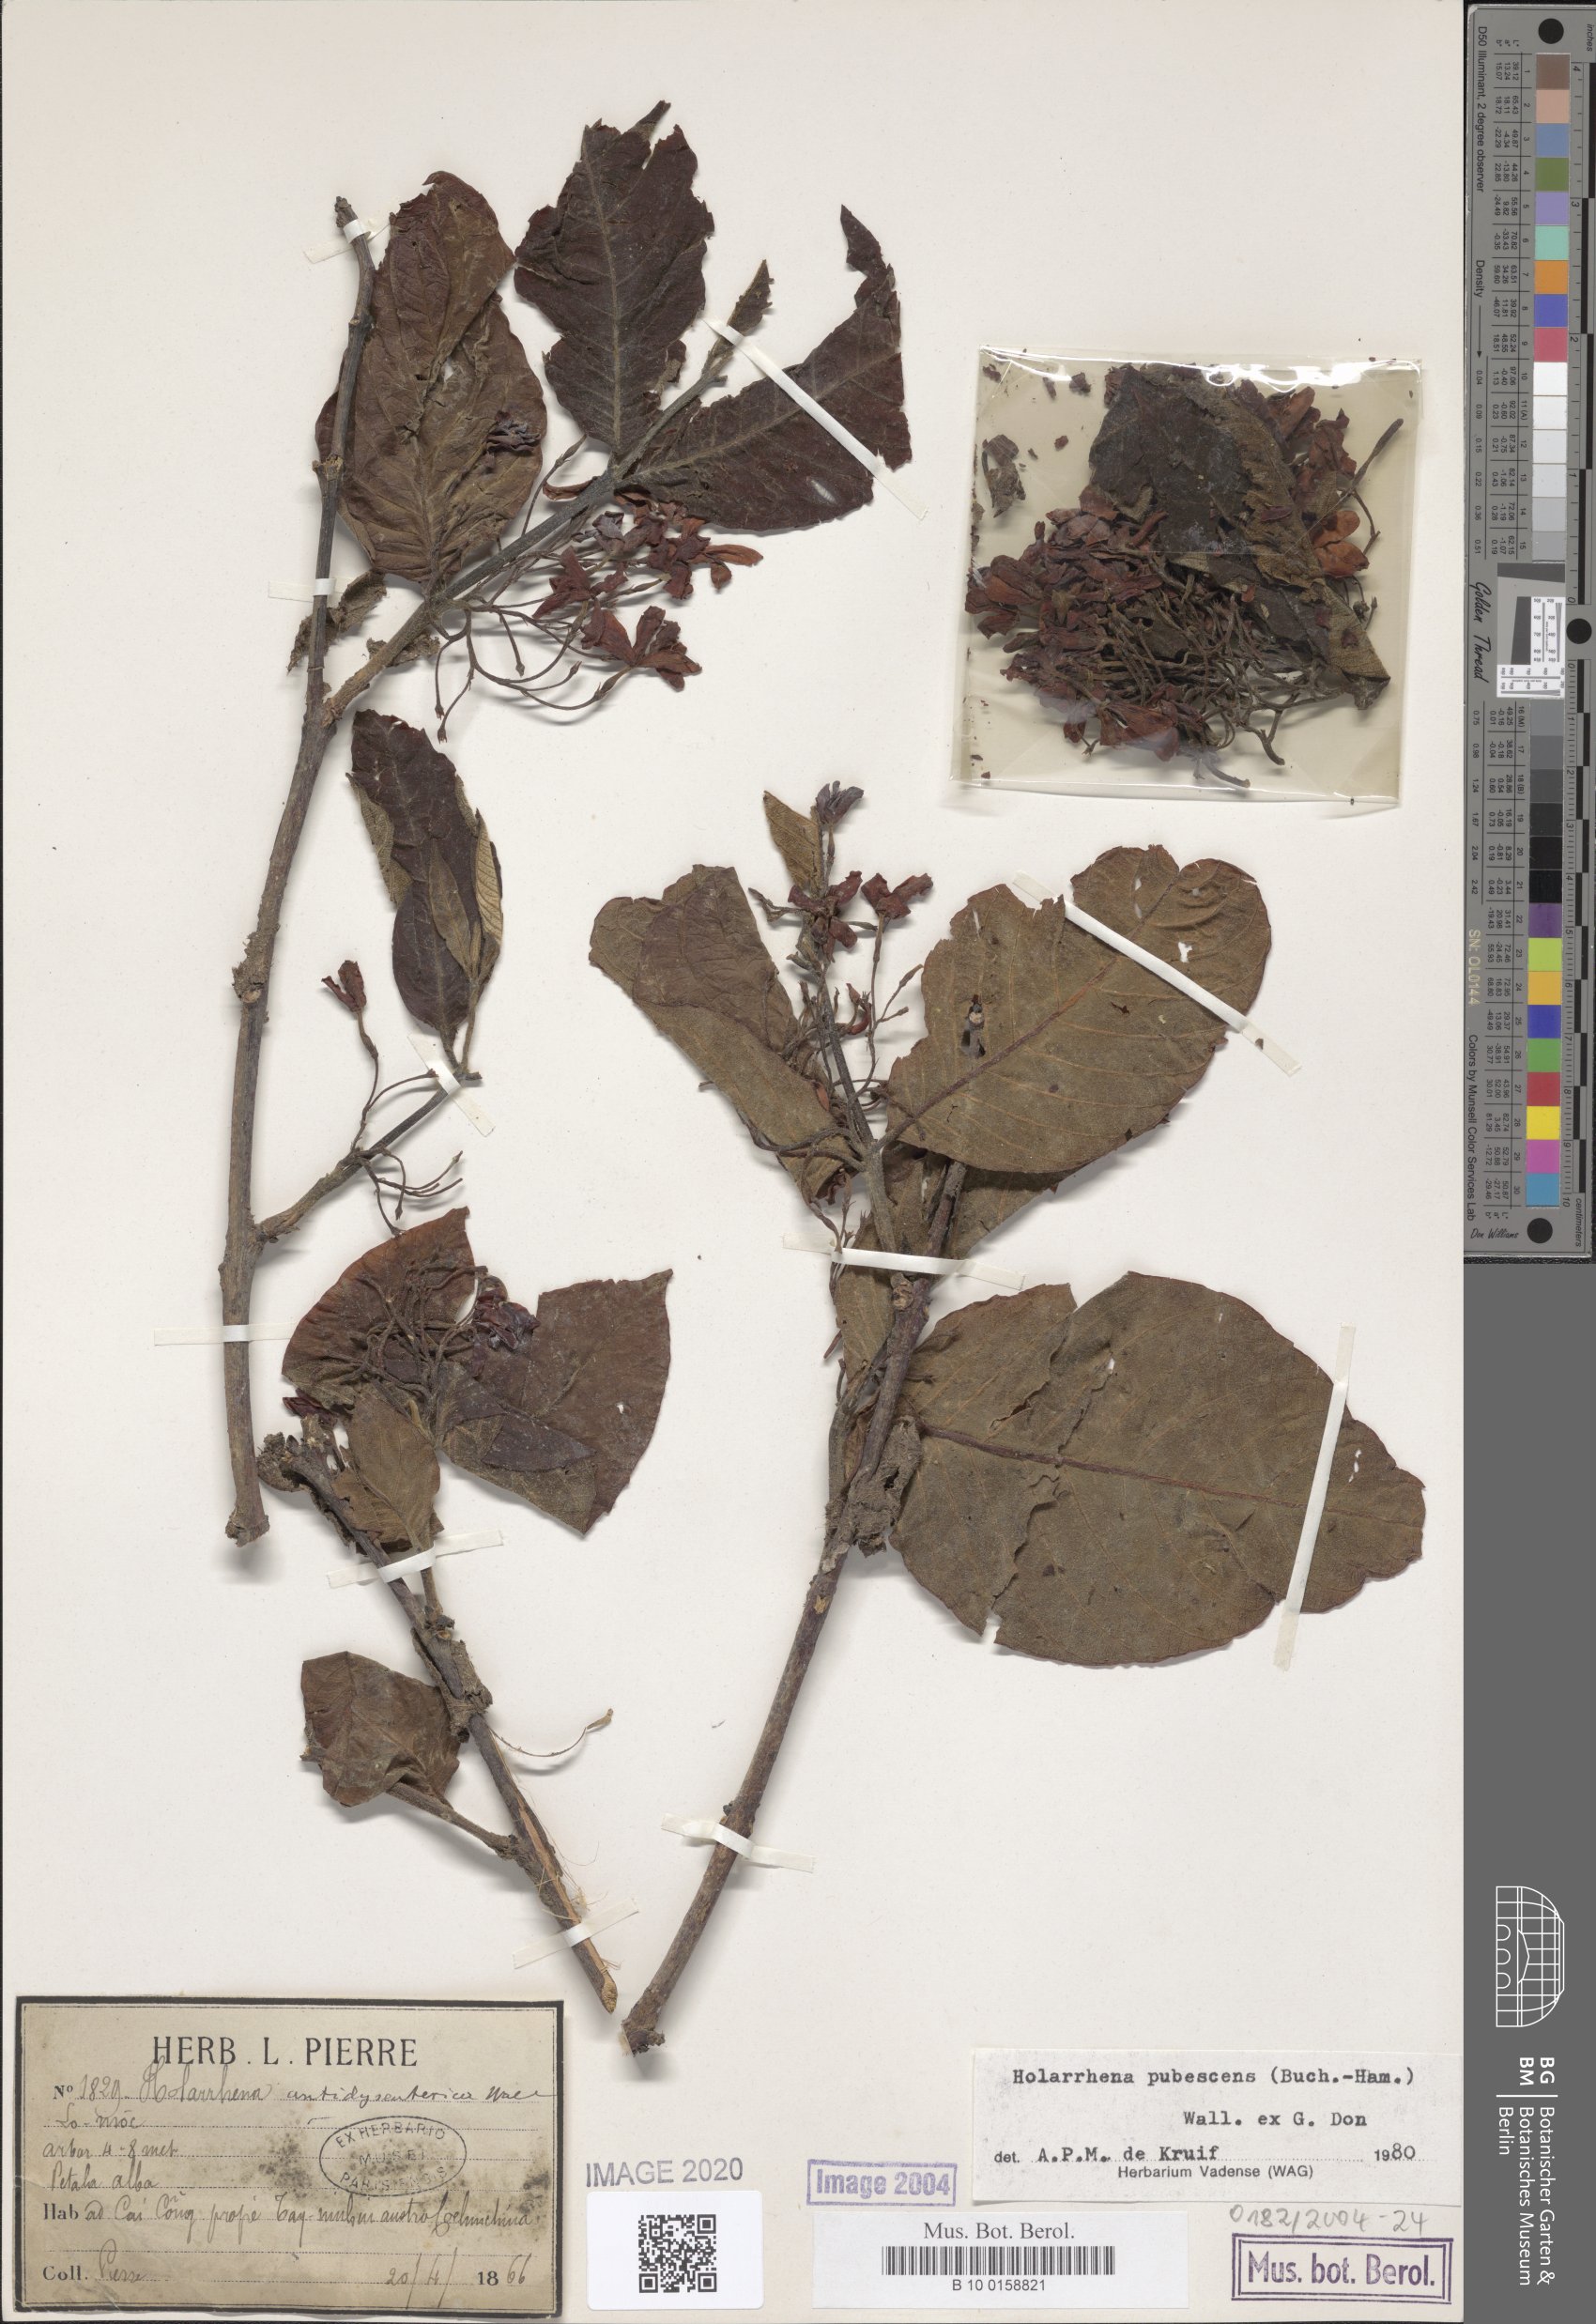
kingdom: Plantae
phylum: Tracheophyta
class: Magnoliopsida
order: Gentianales
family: Apocynaceae
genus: Holarrhena
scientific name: Holarrhena pubescens
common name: Bitter oleander
